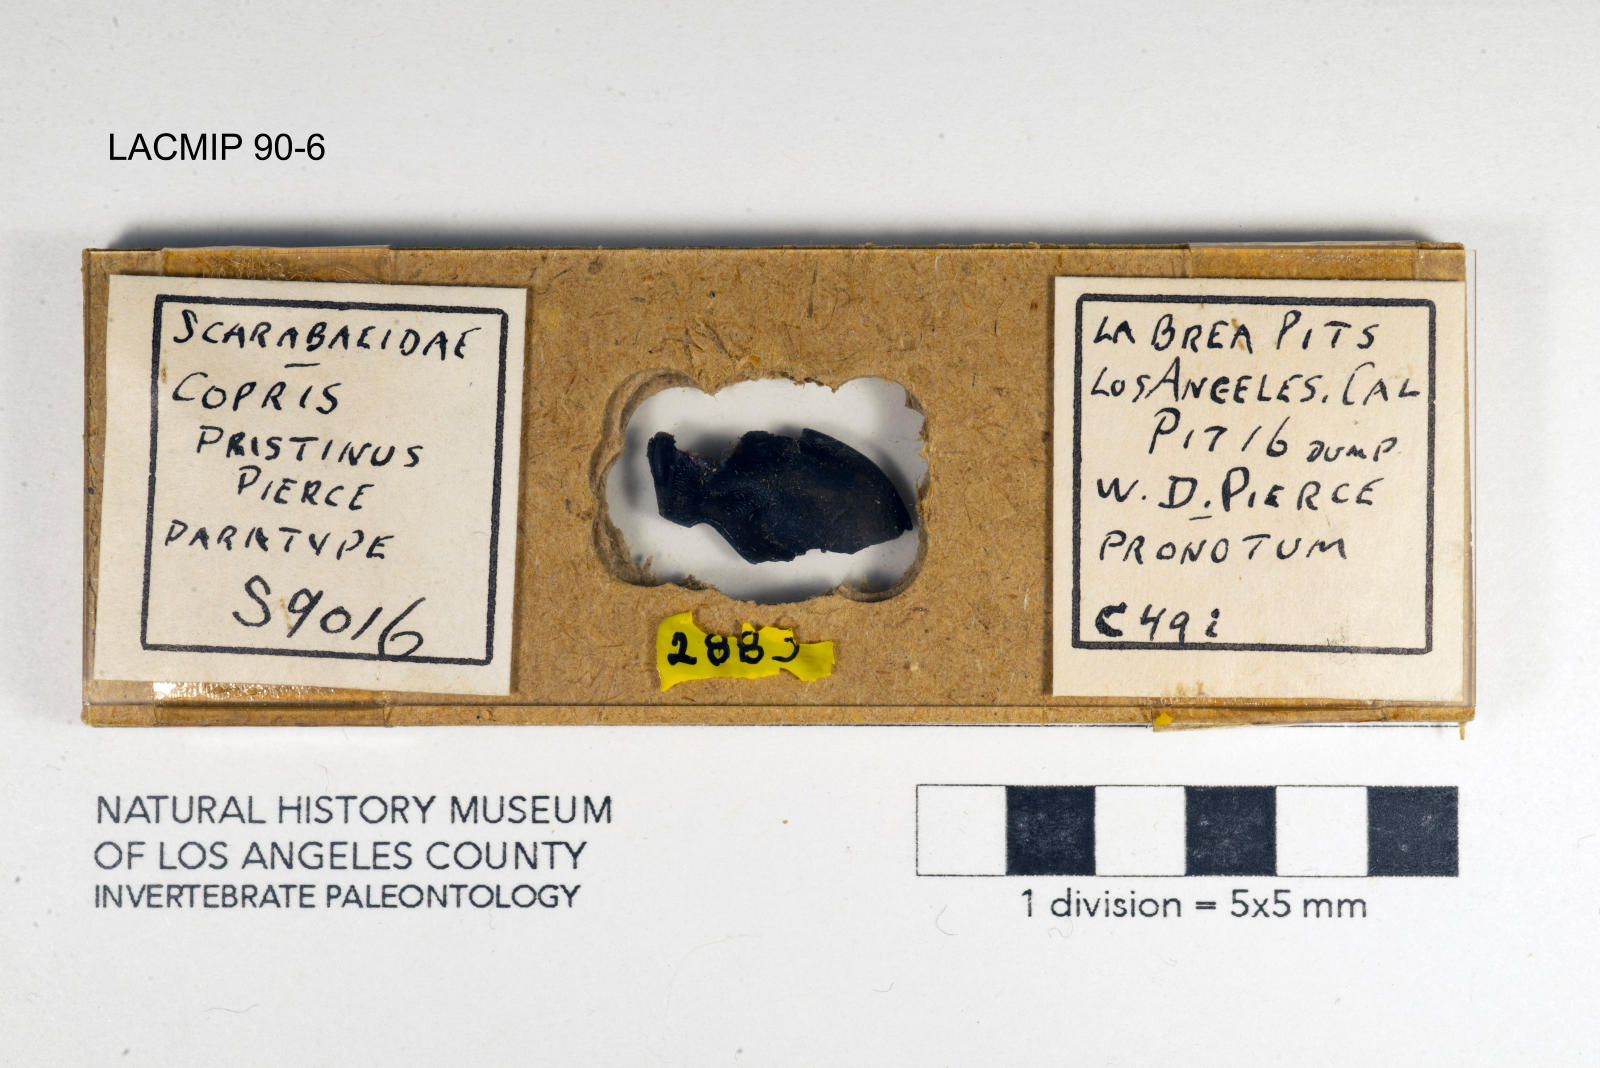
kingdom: Animalia
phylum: Arthropoda
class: Insecta
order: Coleoptera
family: Scarabaeidae
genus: Copris
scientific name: Copris pristinus
